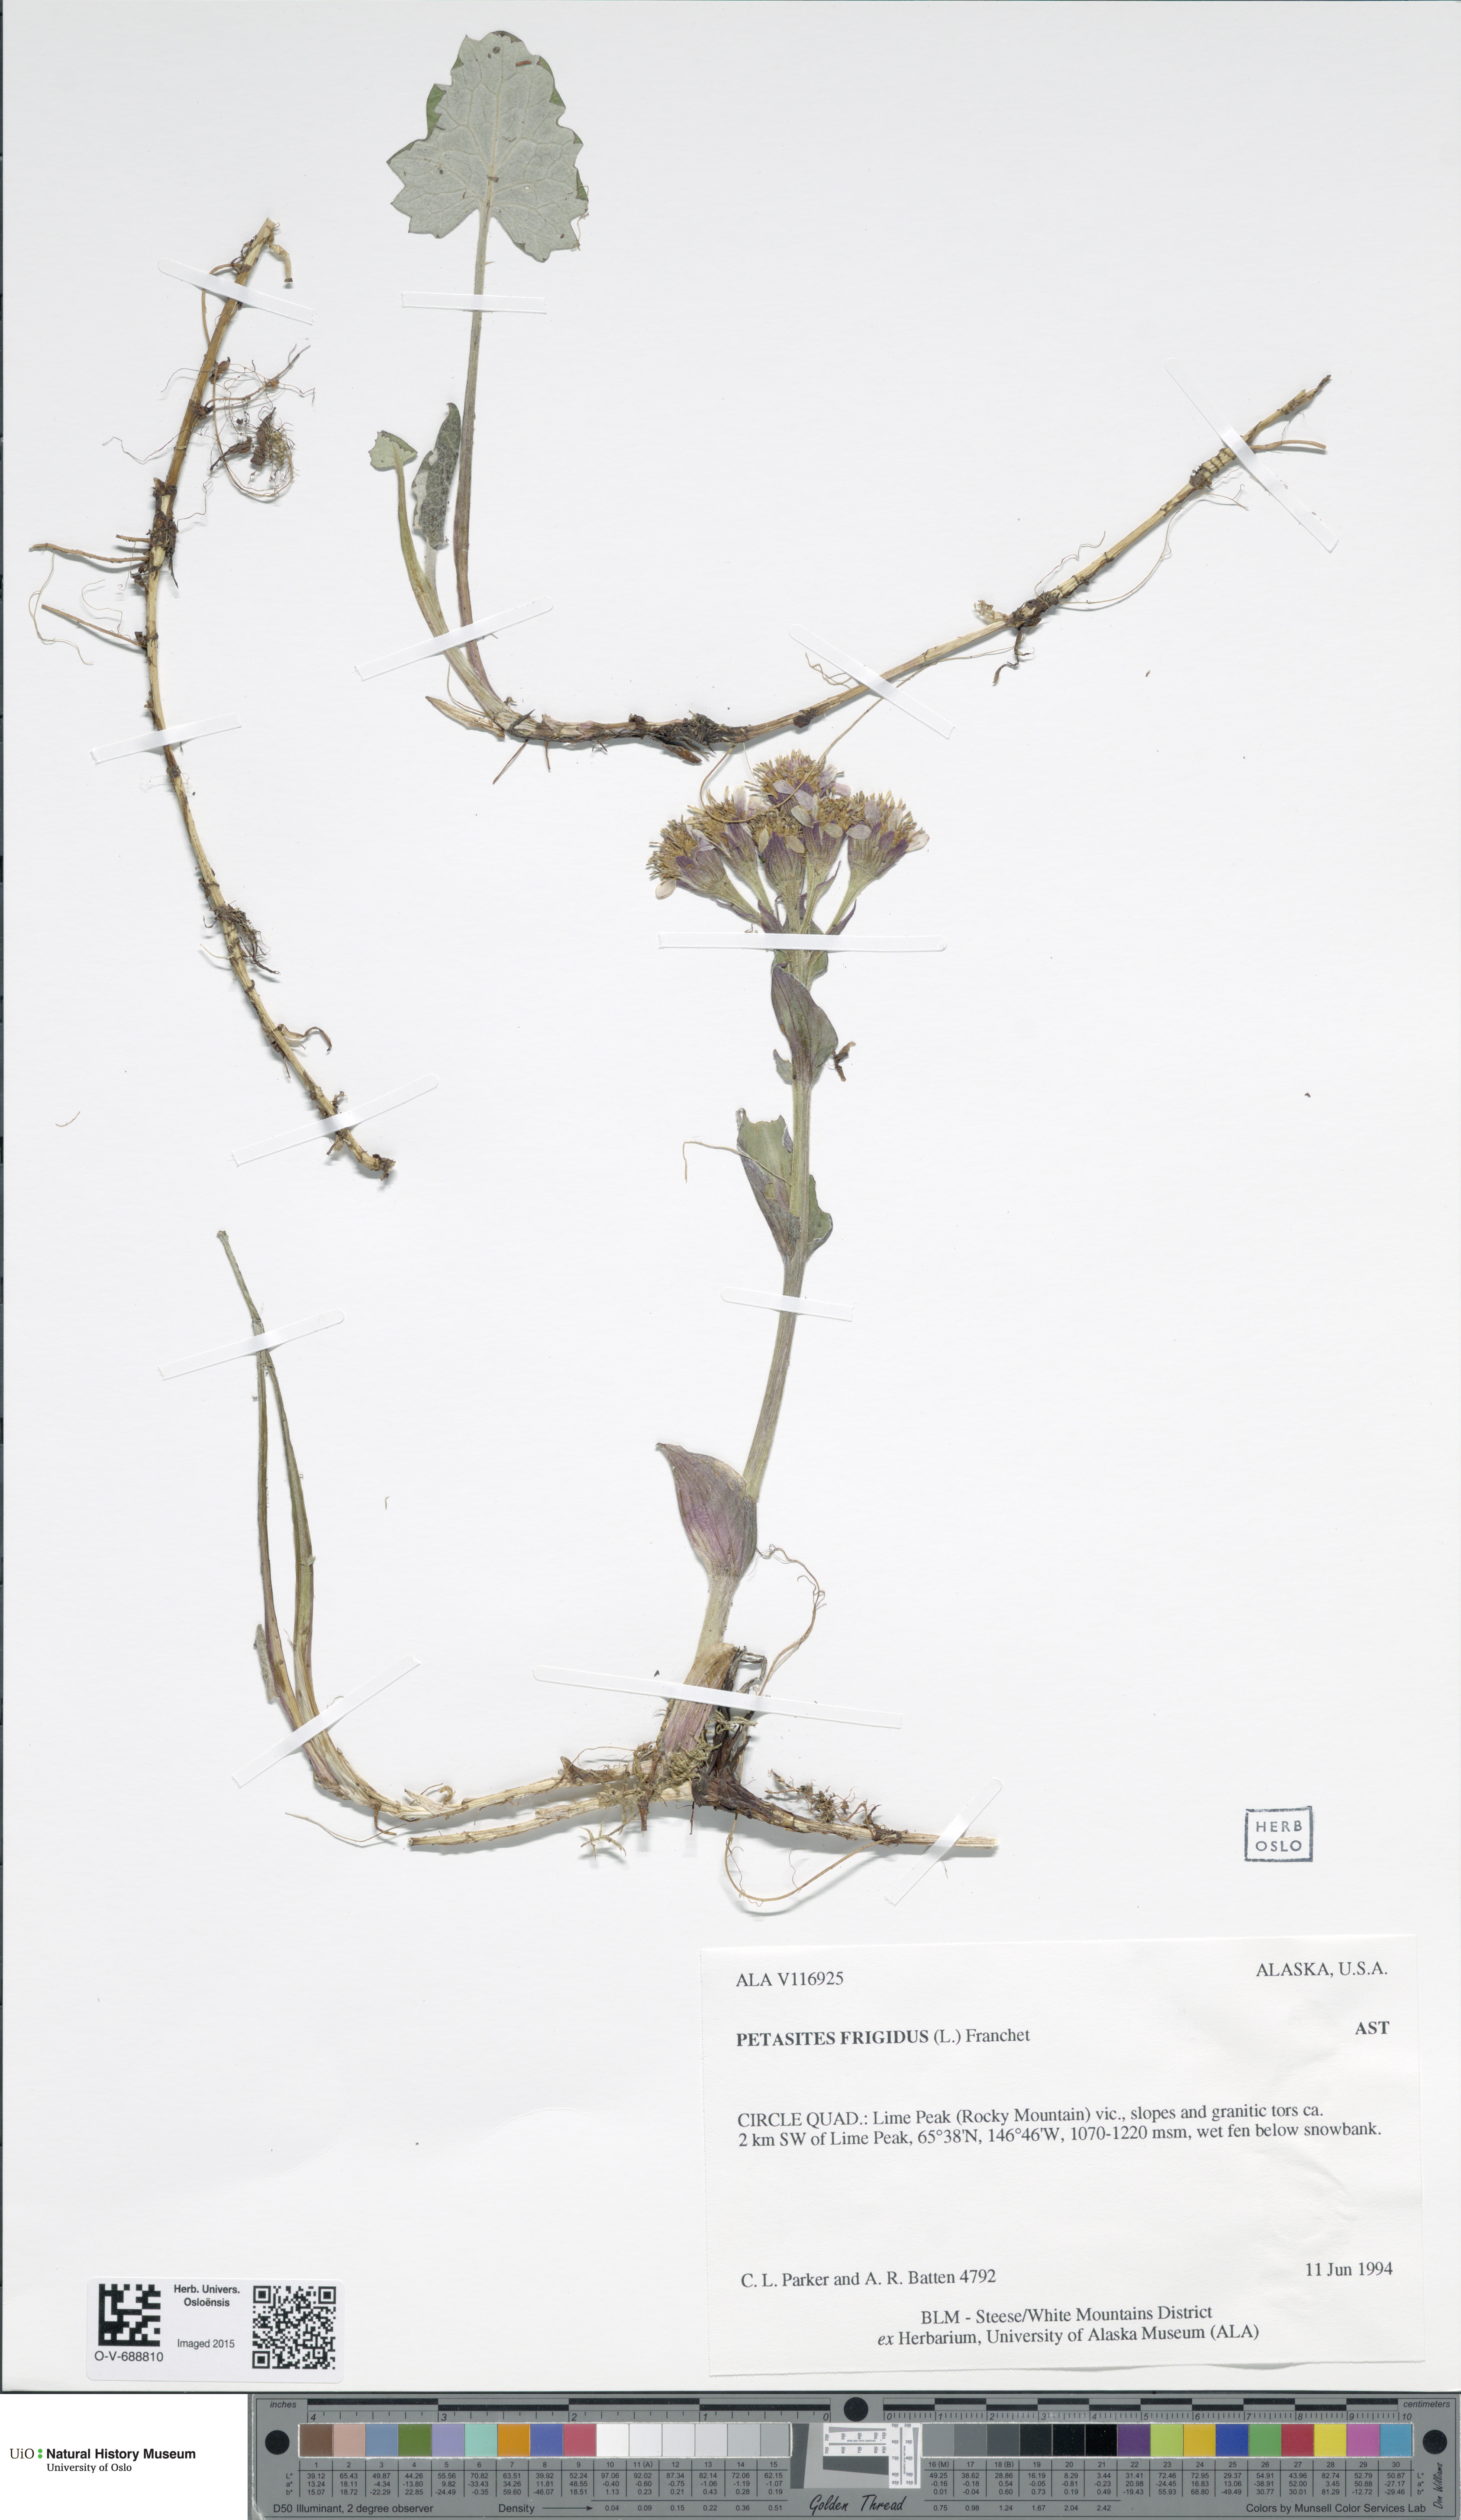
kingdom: Plantae
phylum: Tracheophyta
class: Magnoliopsida
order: Asterales
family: Asteraceae
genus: Petasites
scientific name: Petasites frigidus
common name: Arctic butterbur
